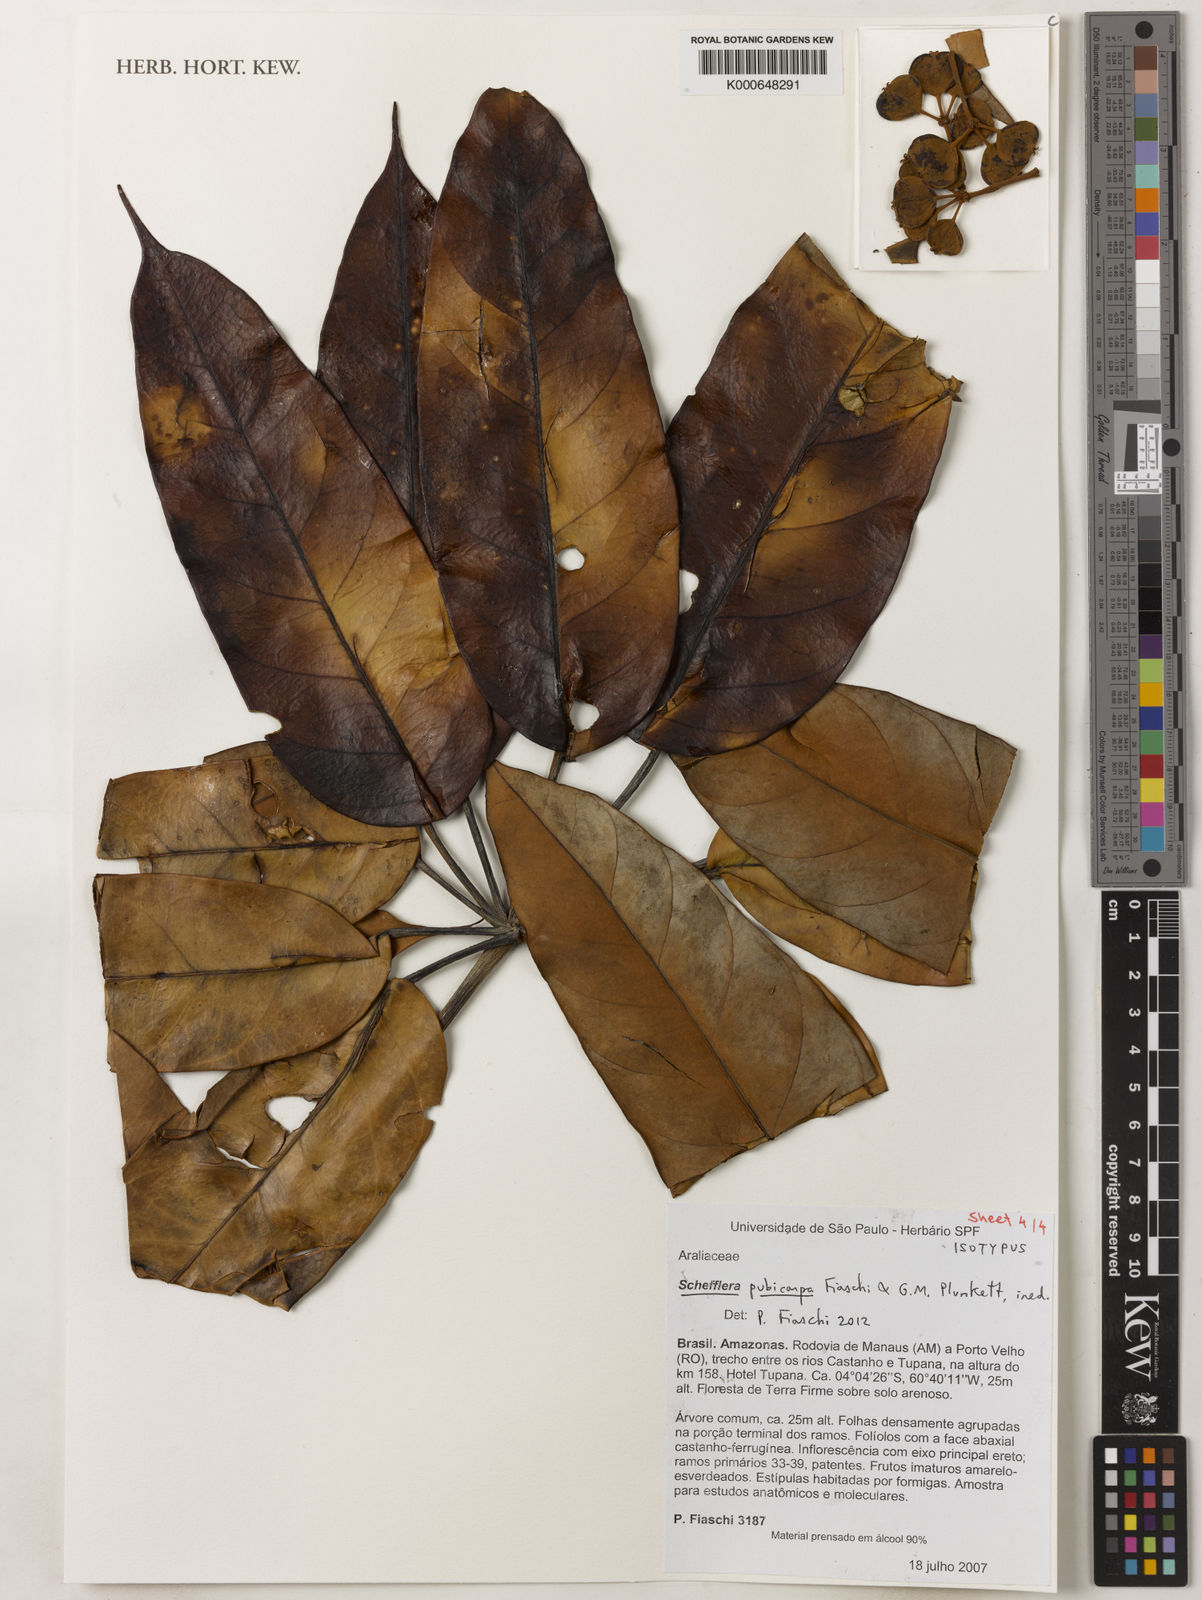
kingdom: Plantae
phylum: Tracheophyta
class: Magnoliopsida
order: Apiales
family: Araliaceae
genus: Didymopanax
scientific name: Didymopanax pubicarpus
